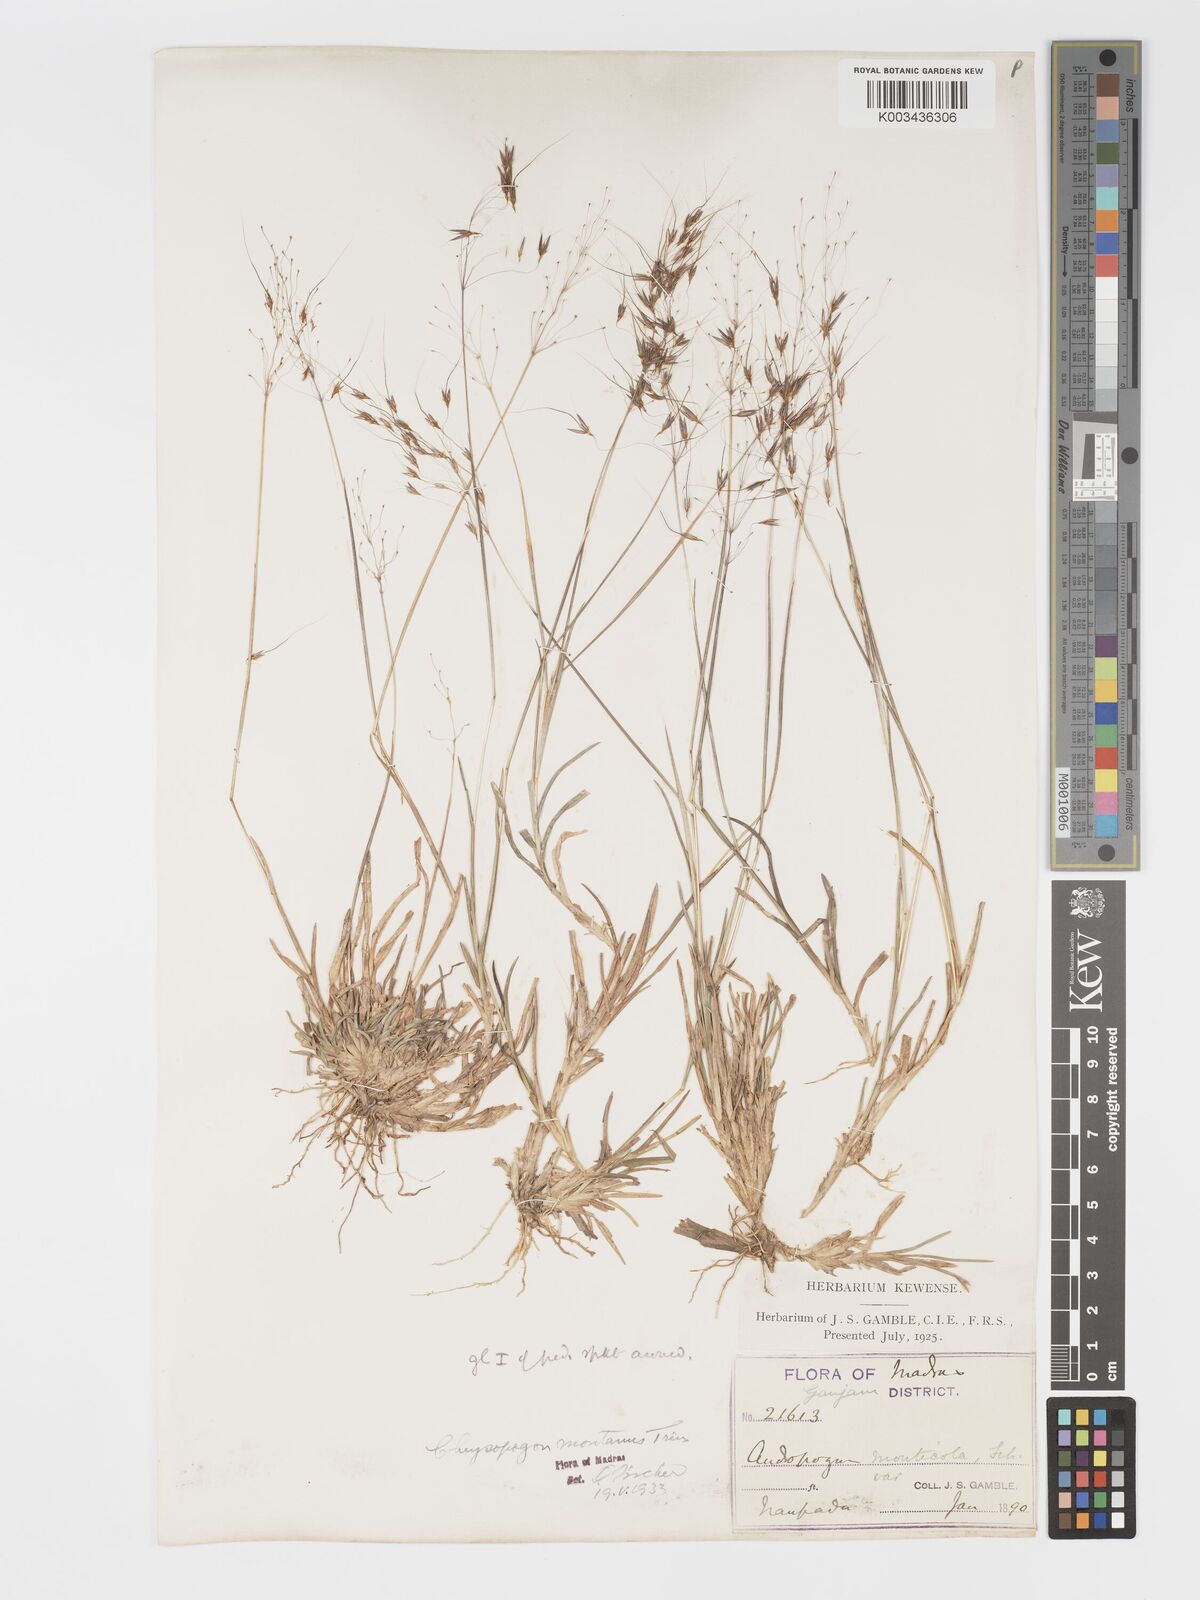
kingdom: Plantae
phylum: Tracheophyta
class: Liliopsida
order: Poales
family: Poaceae
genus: Chrysopogon
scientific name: Chrysopogon fulvus
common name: Red false beardgrass
